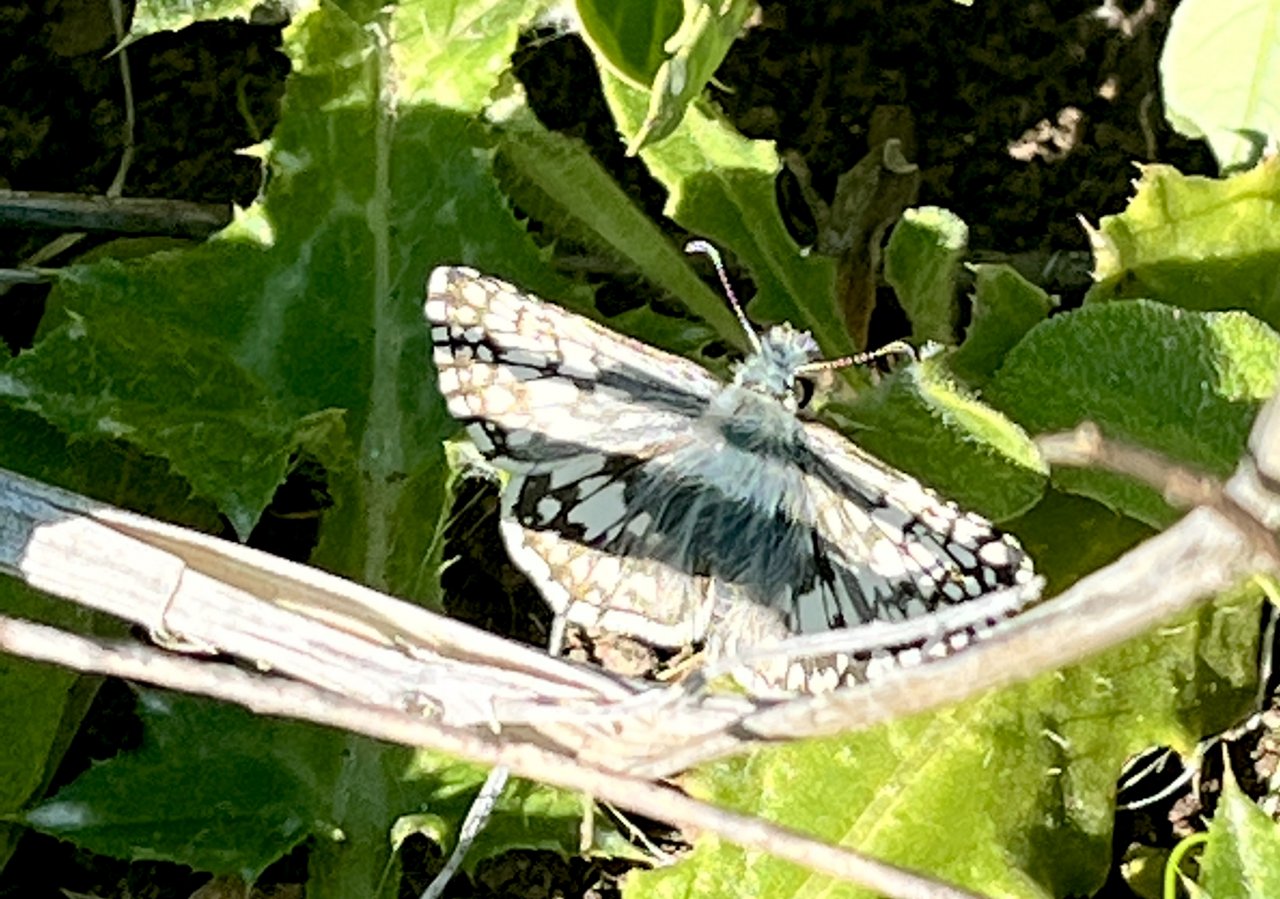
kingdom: Animalia
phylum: Arthropoda
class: Insecta
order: Lepidoptera
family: Hesperiidae
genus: Pyrgus
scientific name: Pyrgus communis
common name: White Checkered-Skipper
